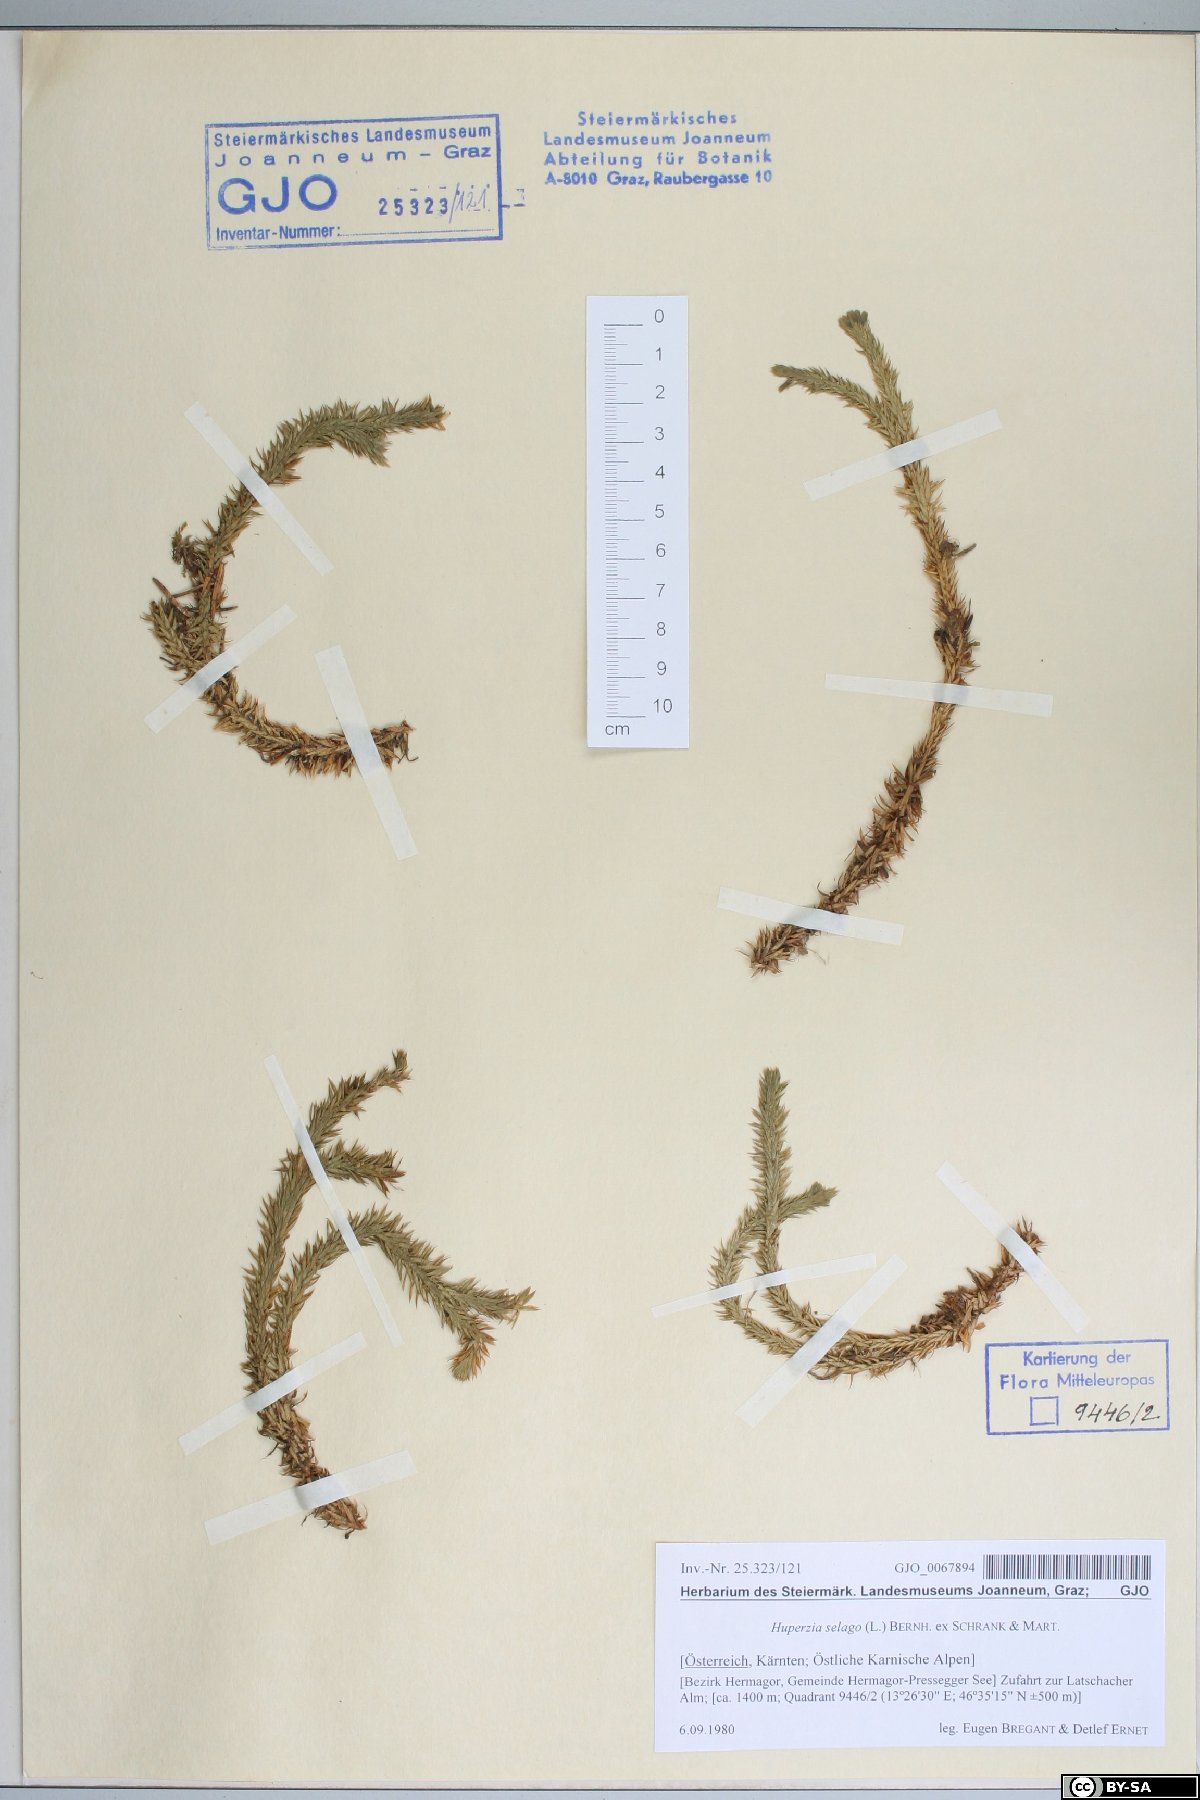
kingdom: Plantae
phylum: Tracheophyta
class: Lycopodiopsida
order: Lycopodiales
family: Lycopodiaceae
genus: Huperzia
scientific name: Huperzia selago
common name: Northern firmoss
